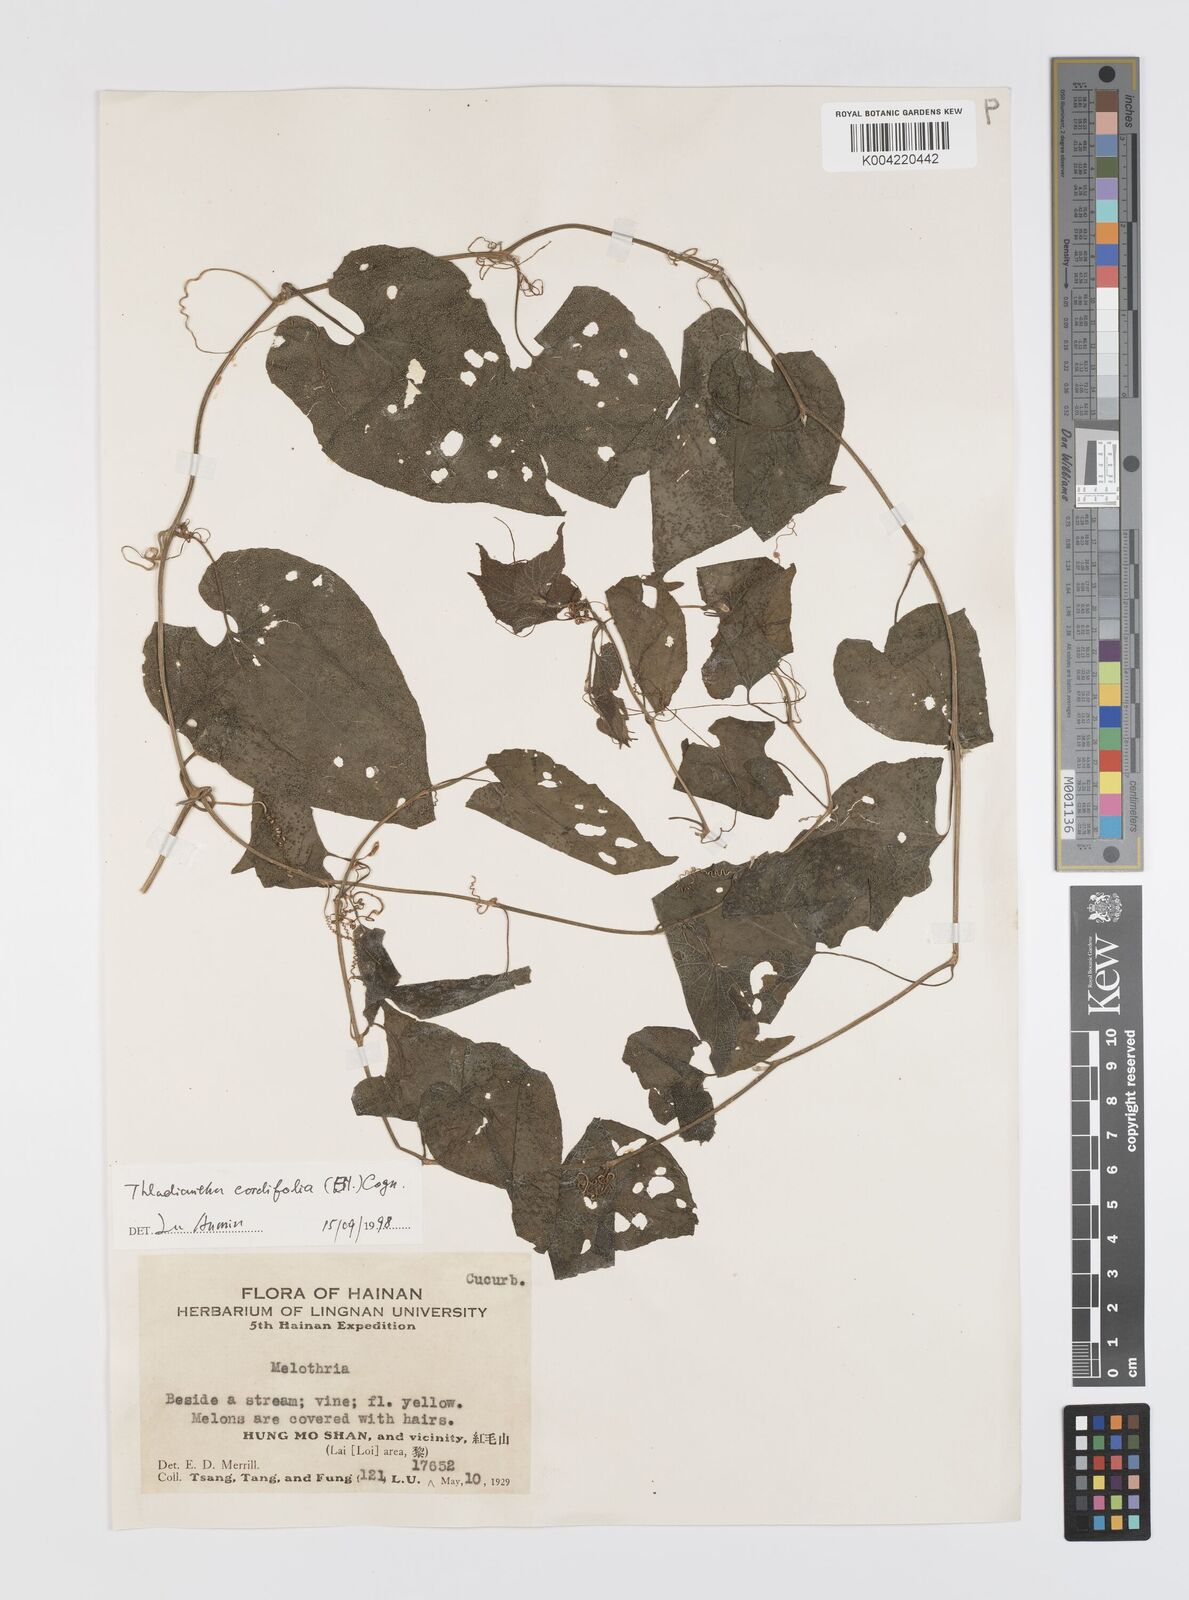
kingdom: Plantae
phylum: Tracheophyta
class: Magnoliopsida
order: Cucurbitales
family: Cucurbitaceae
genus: Thladiantha
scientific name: Thladiantha cordifolia
